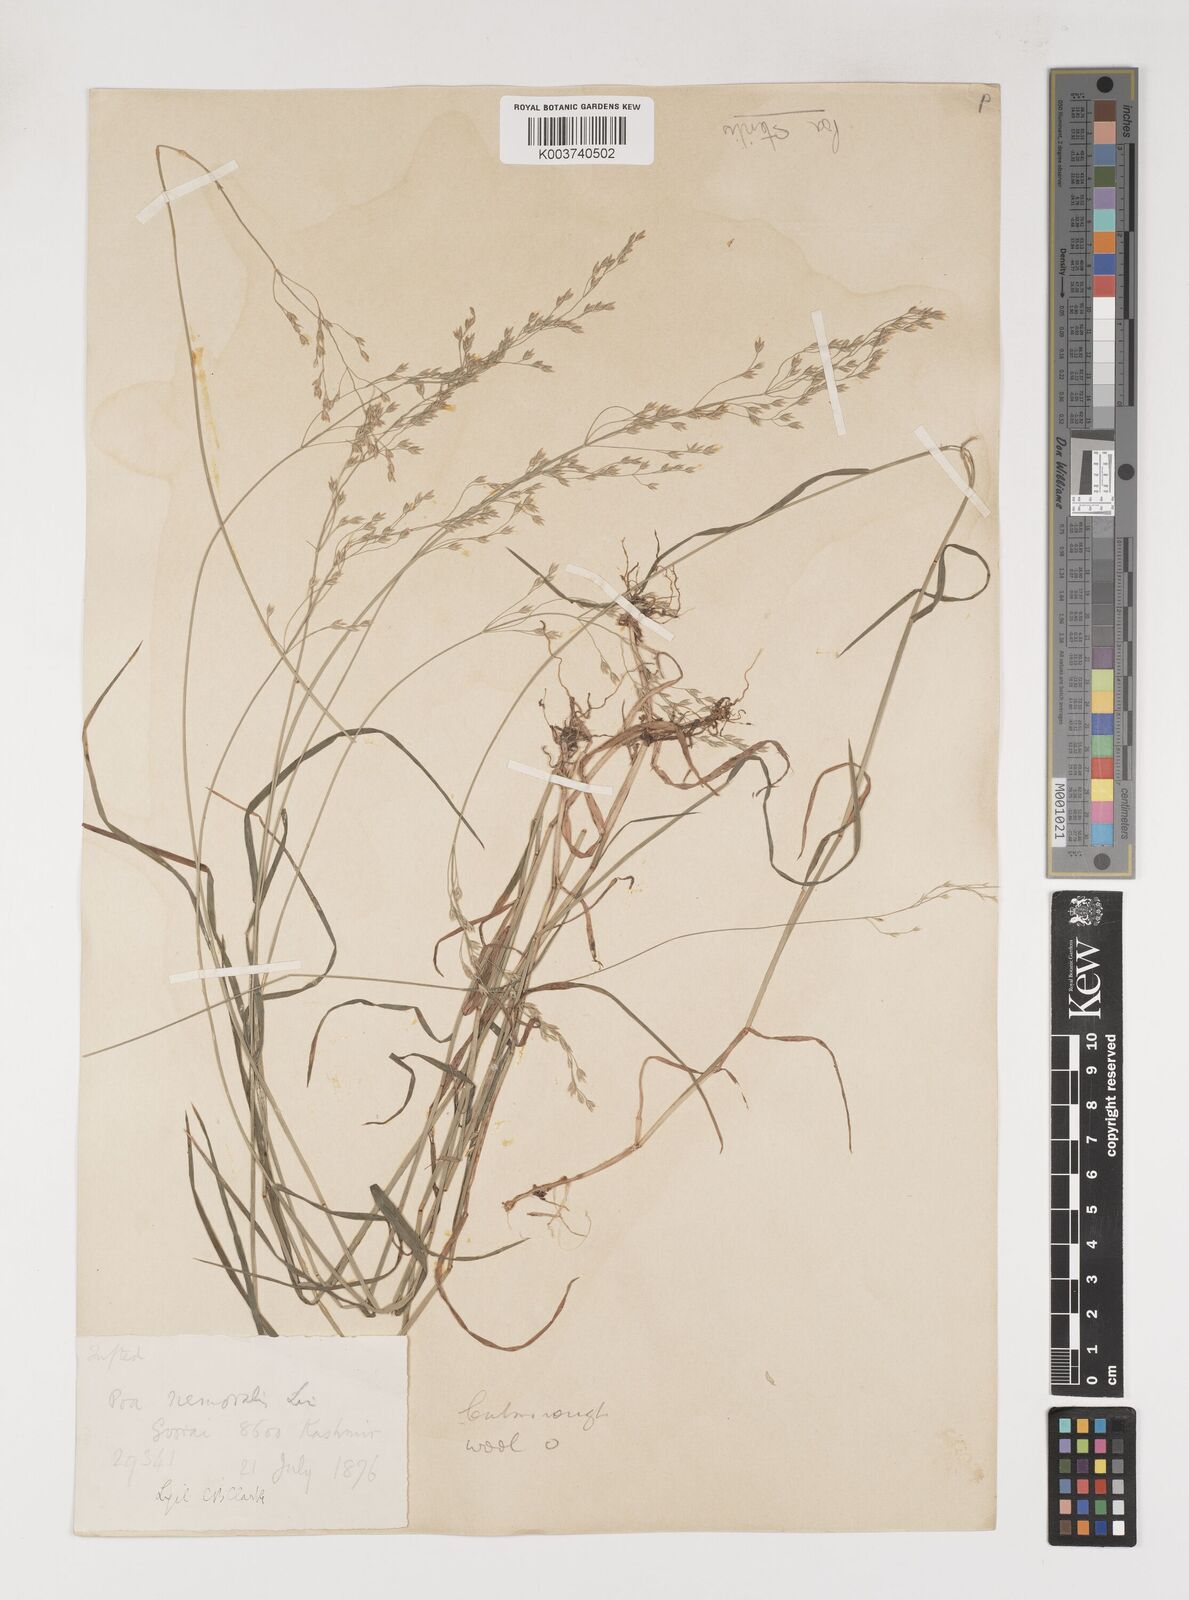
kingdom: Plantae
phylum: Tracheophyta
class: Liliopsida
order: Poales
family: Poaceae
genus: Poa
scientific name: Poa sterilis
